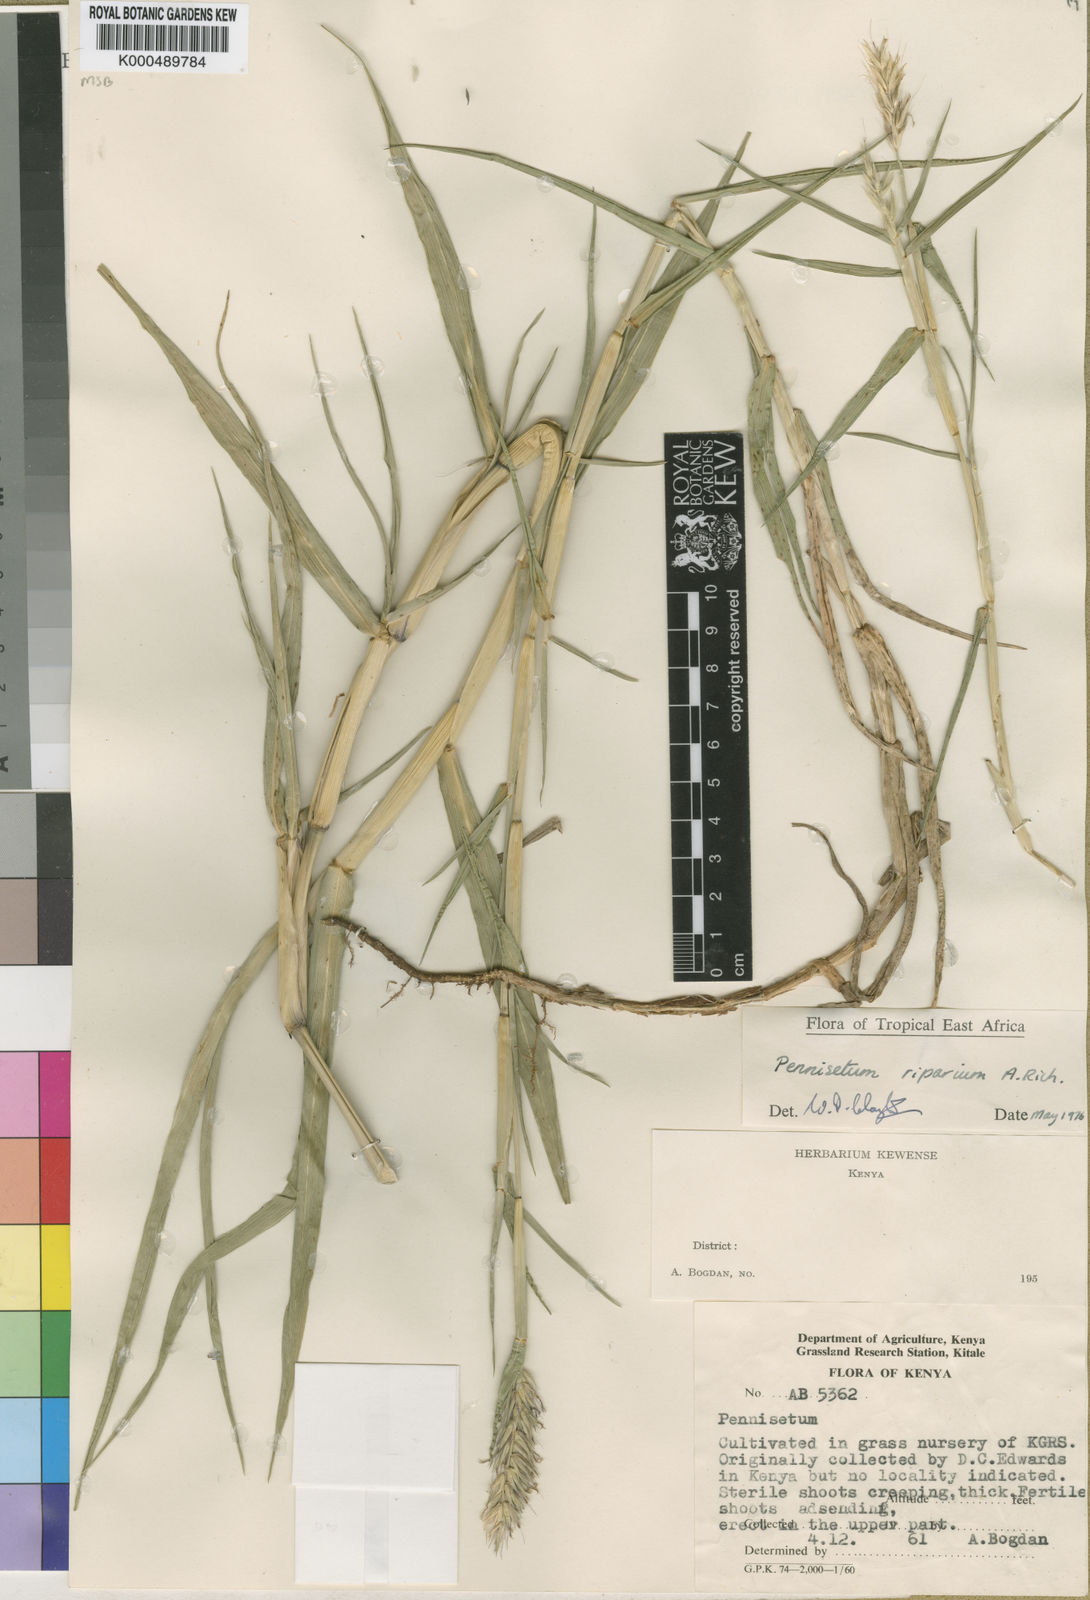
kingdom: Plantae
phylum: Tracheophyta
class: Liliopsida
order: Poales
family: Poaceae
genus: Cenchrus
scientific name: Cenchrus Pennisetum spec
